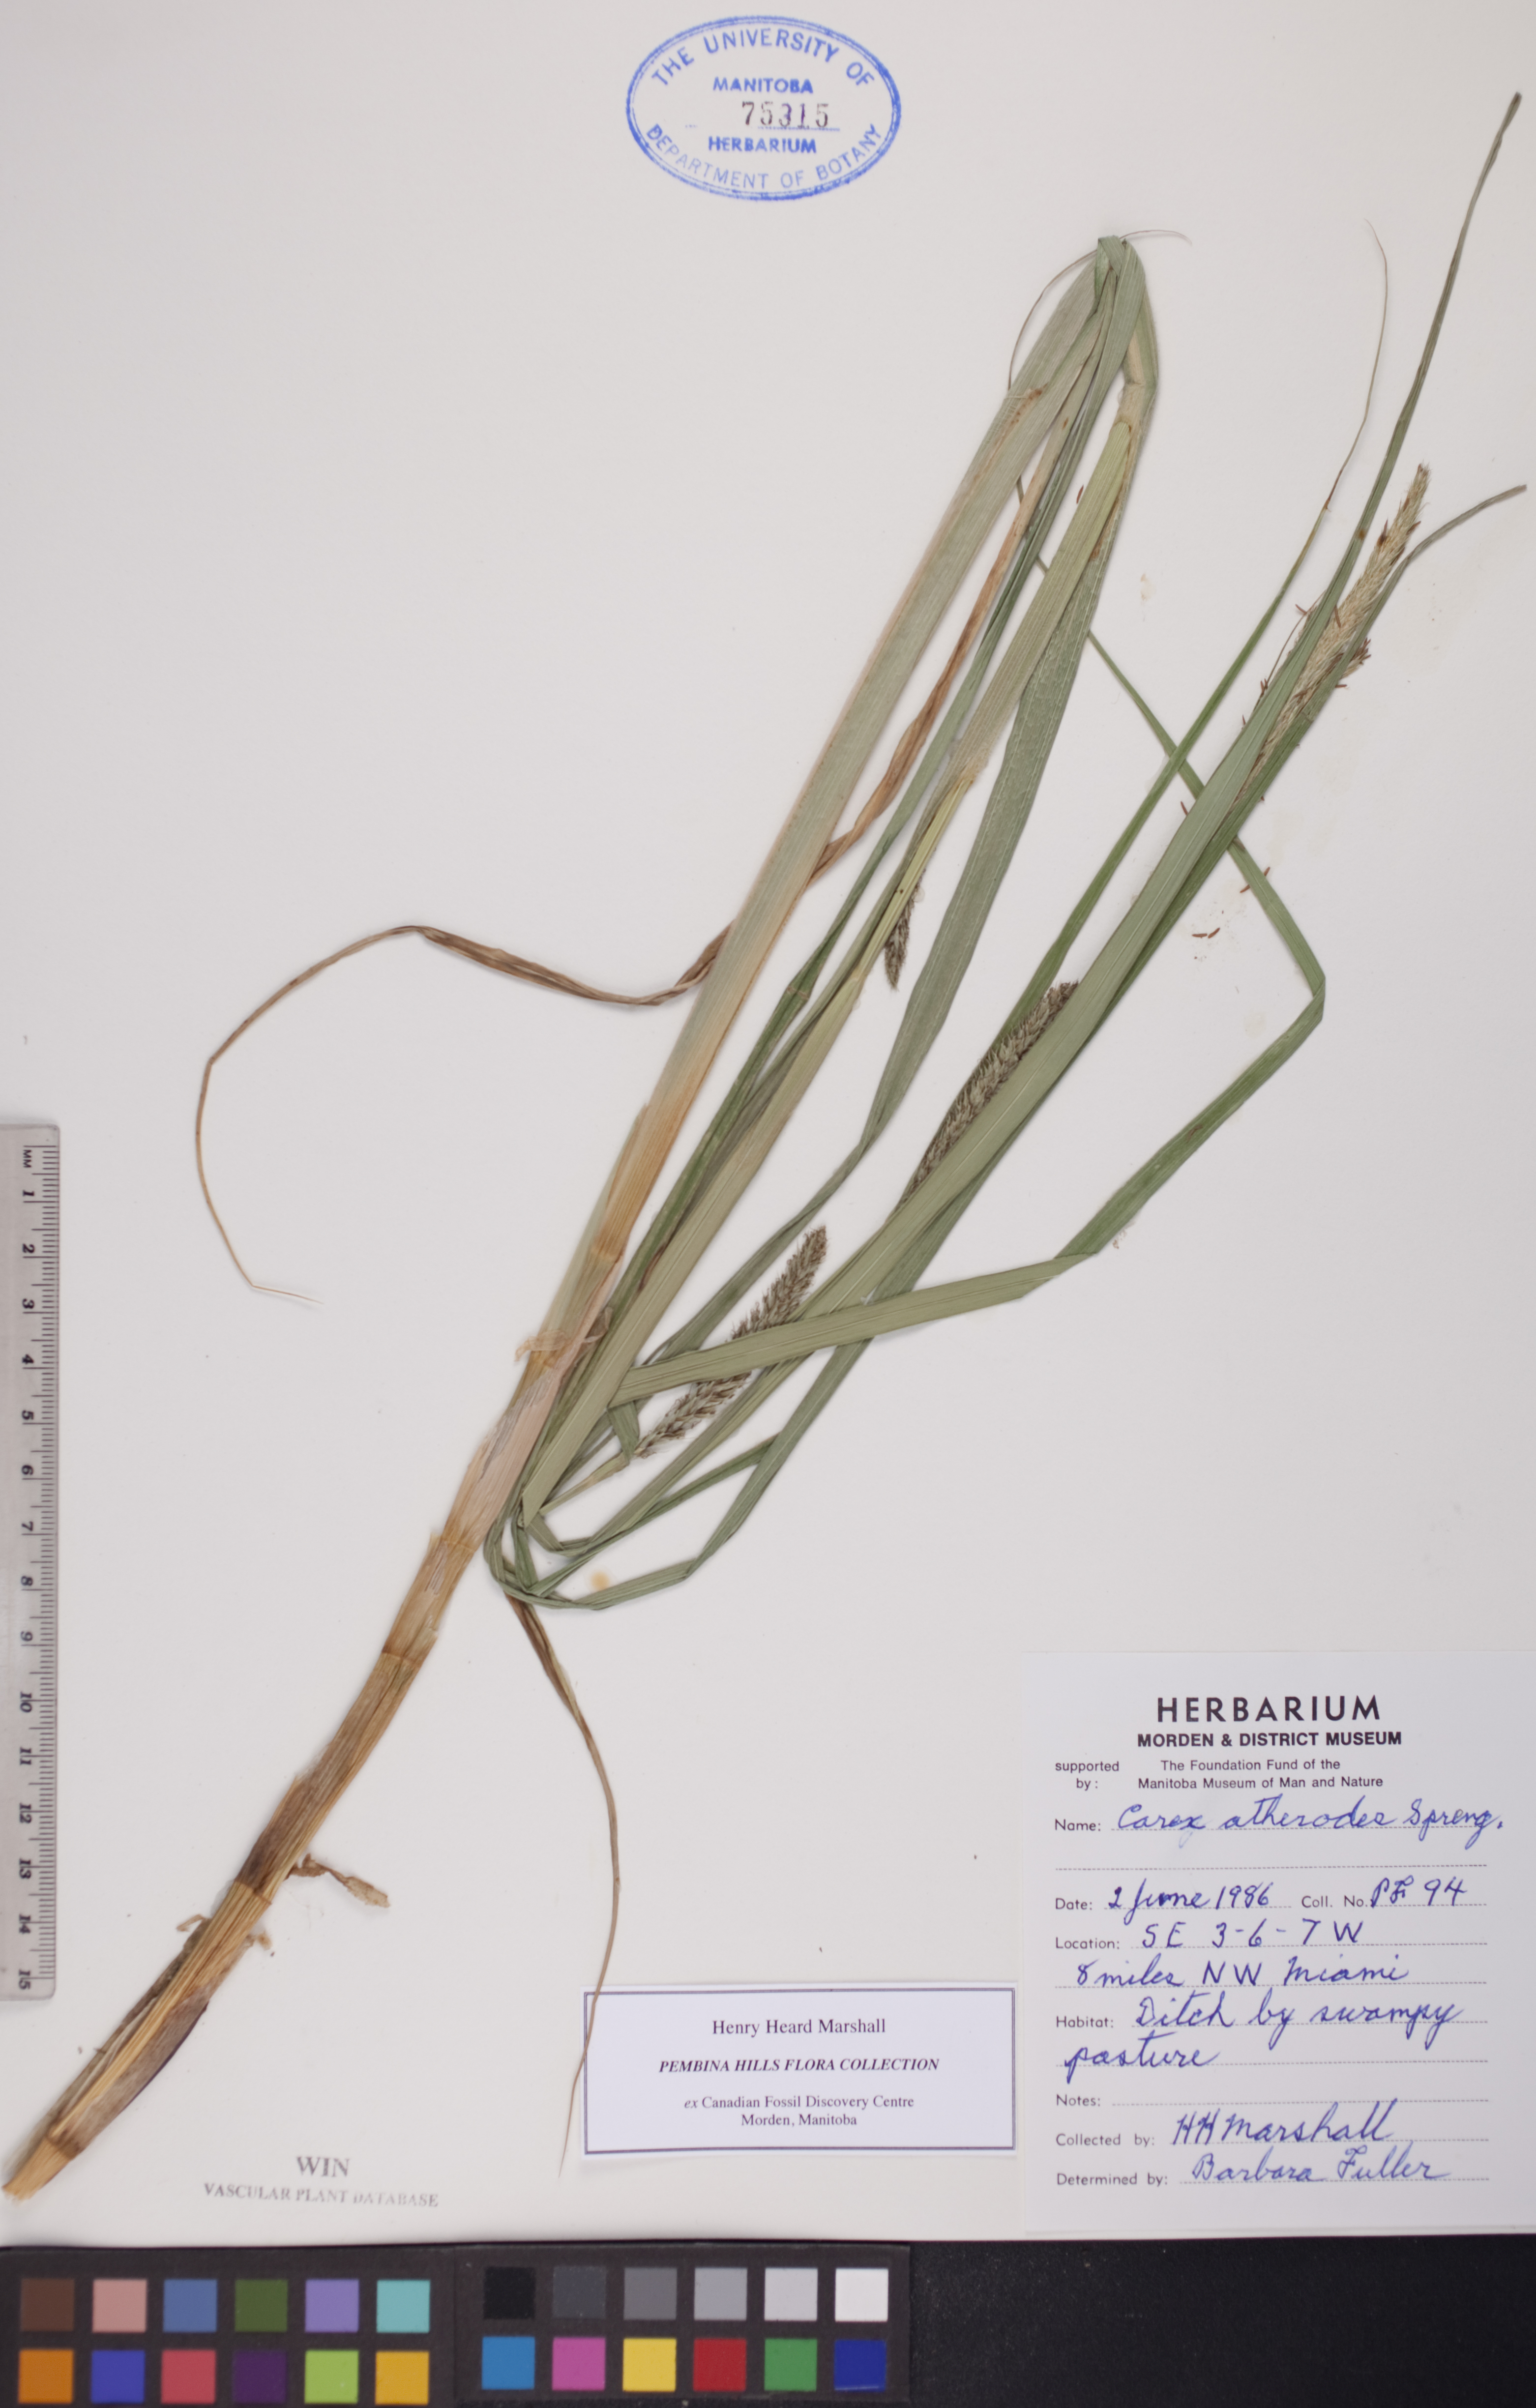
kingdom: Plantae
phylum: Tracheophyta
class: Liliopsida
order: Poales
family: Cyperaceae
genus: Carex
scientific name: Carex atherodes
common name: Wheat sedge
